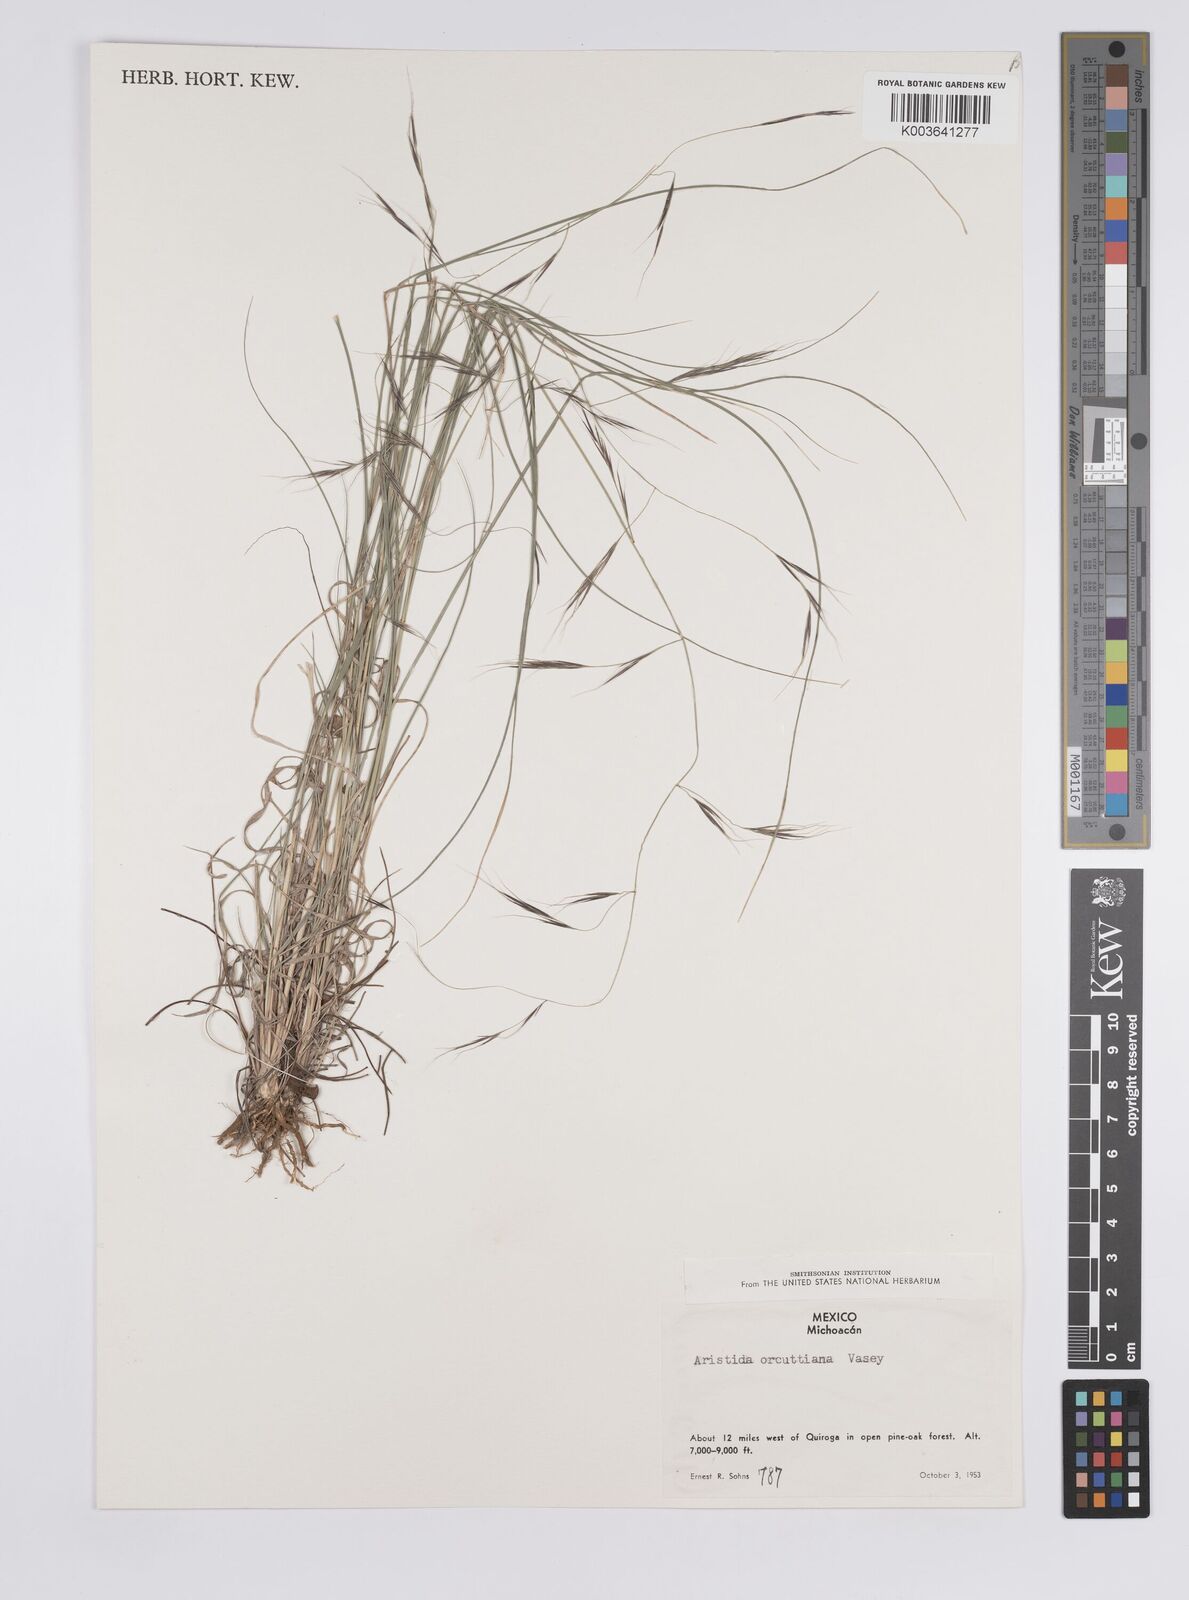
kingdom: Plantae
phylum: Tracheophyta
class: Liliopsida
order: Poales
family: Poaceae
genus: Aristida
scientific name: Aristida schiedeana
